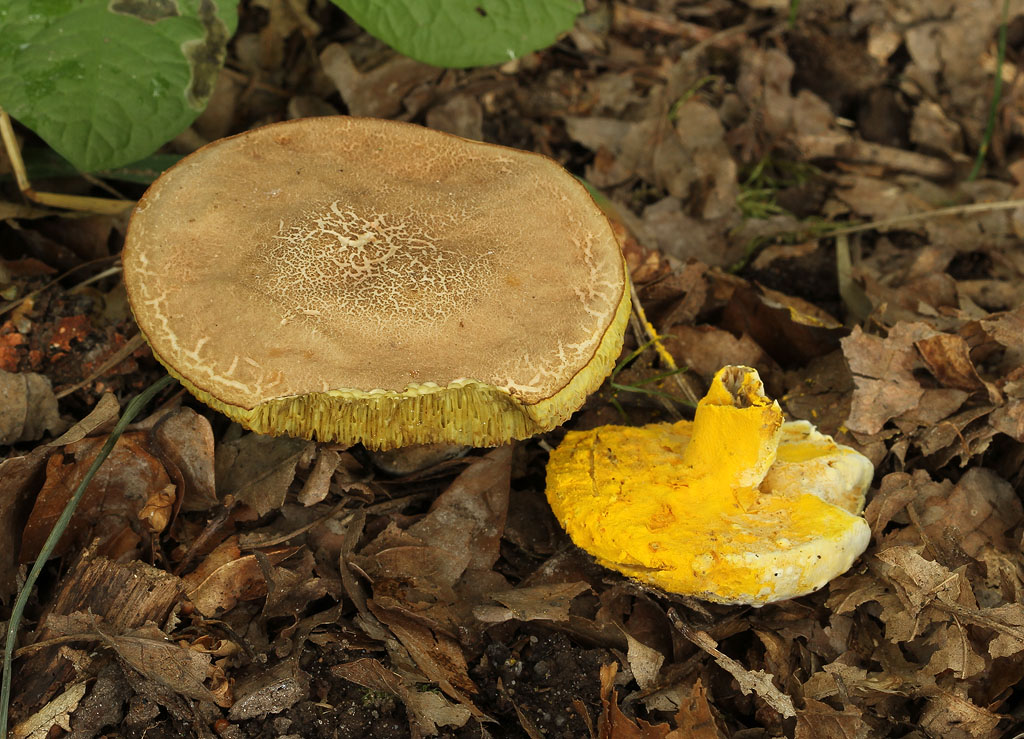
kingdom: Fungi
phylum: Ascomycota
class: Sordariomycetes
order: Hypocreales
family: Hypocreaceae
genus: Sepedonium
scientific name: Sepedonium microspermum
